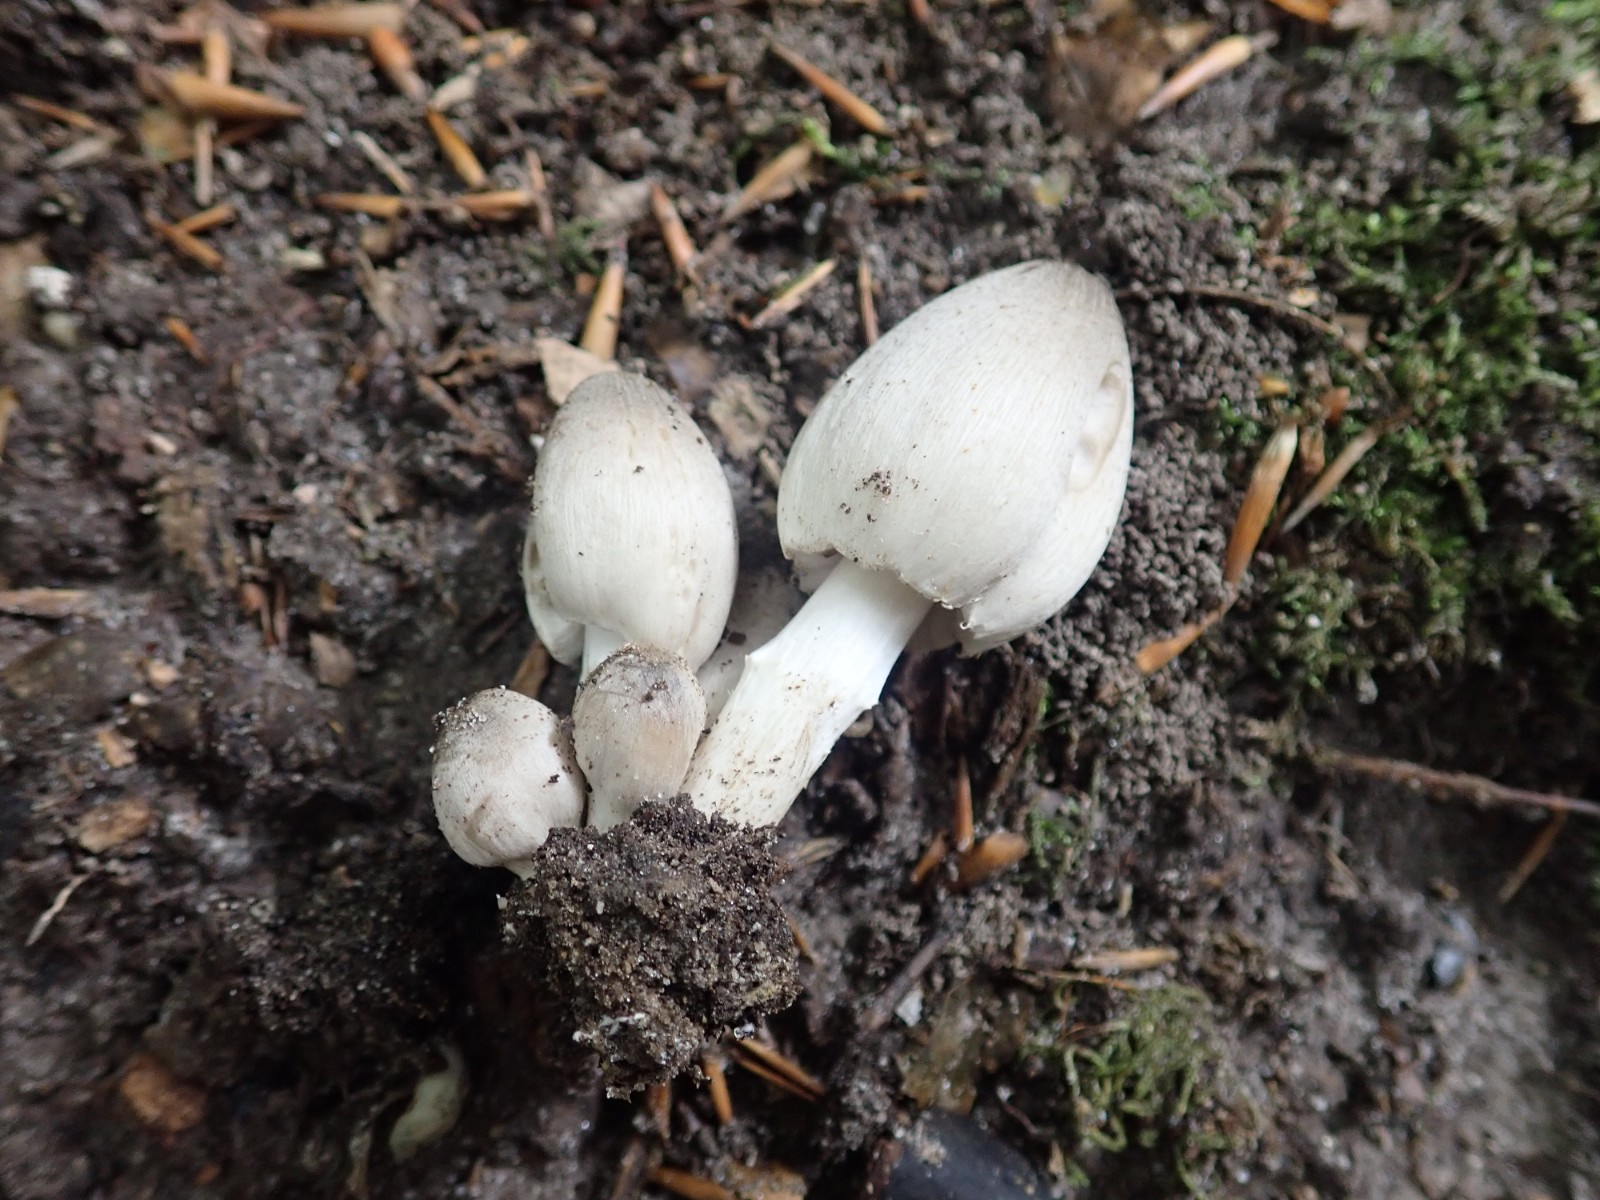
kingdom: Fungi
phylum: Basidiomycota
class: Agaricomycetes
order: Agaricales
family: Psathyrellaceae
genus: Coprinopsis
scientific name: Coprinopsis atramentaria
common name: almindelig blækhat
